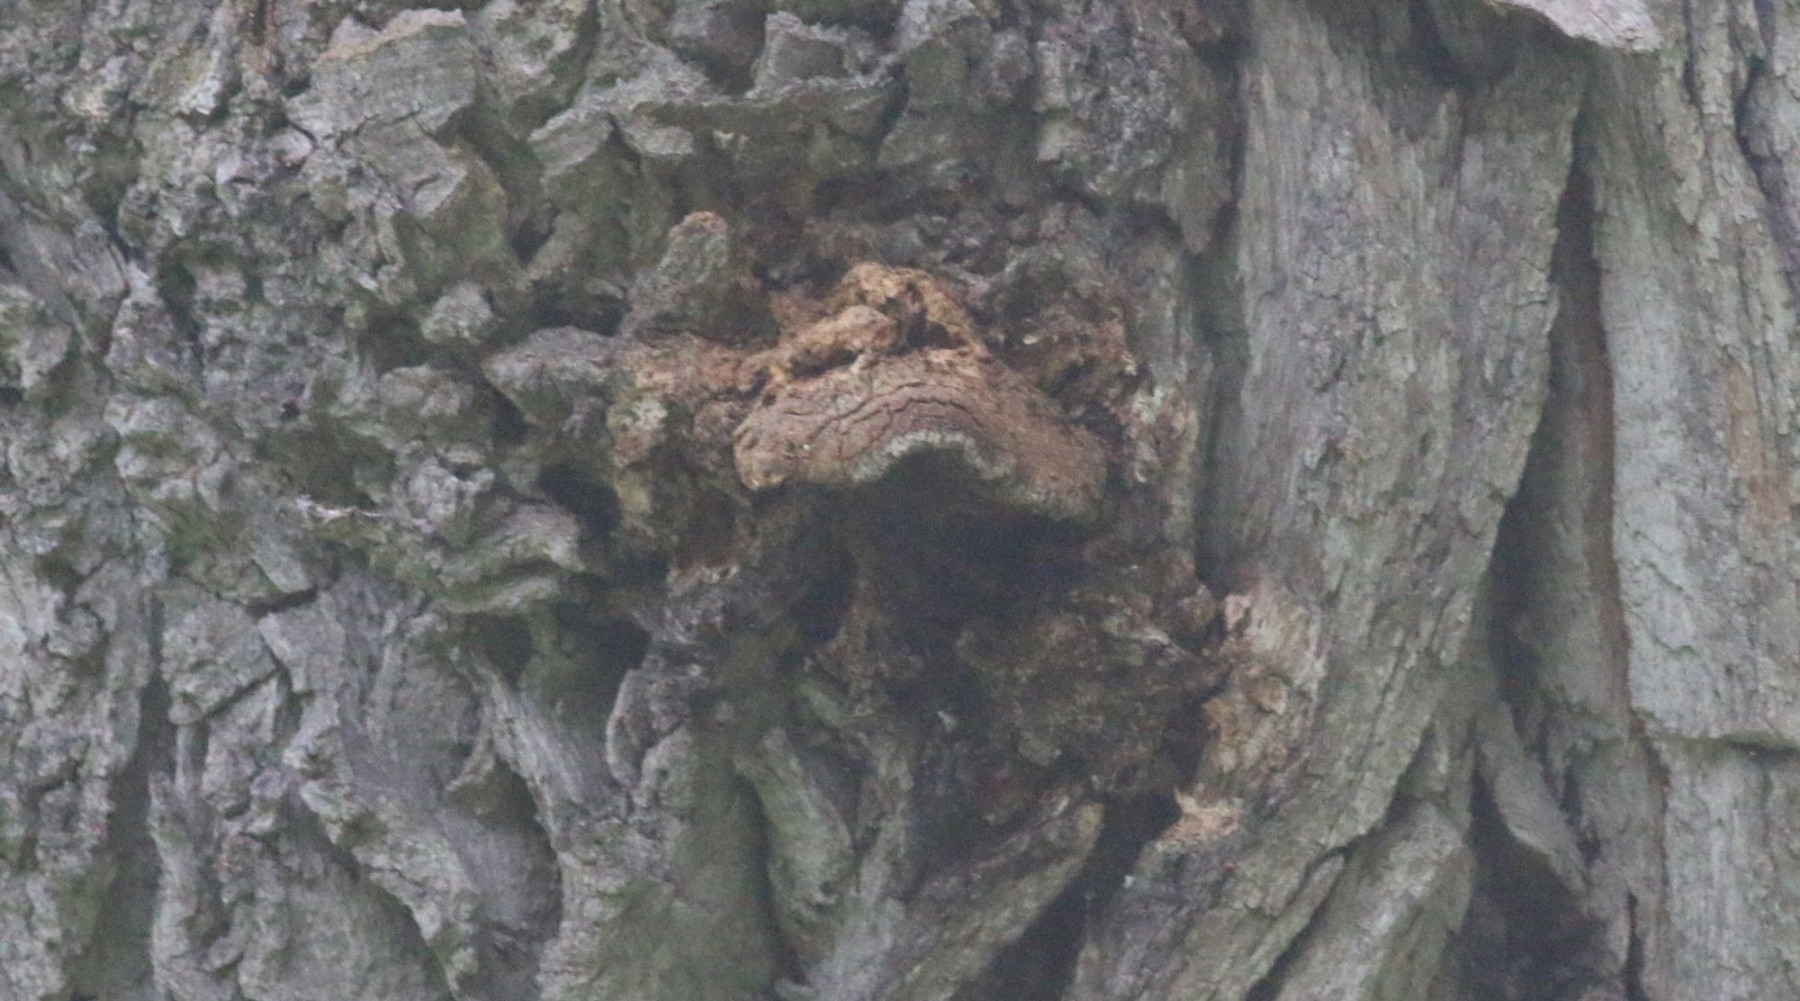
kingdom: Fungi
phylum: Basidiomycota
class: Agaricomycetes
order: Polyporales
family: Polyporaceae
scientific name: Polyporaceae
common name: poresvampfamilien
